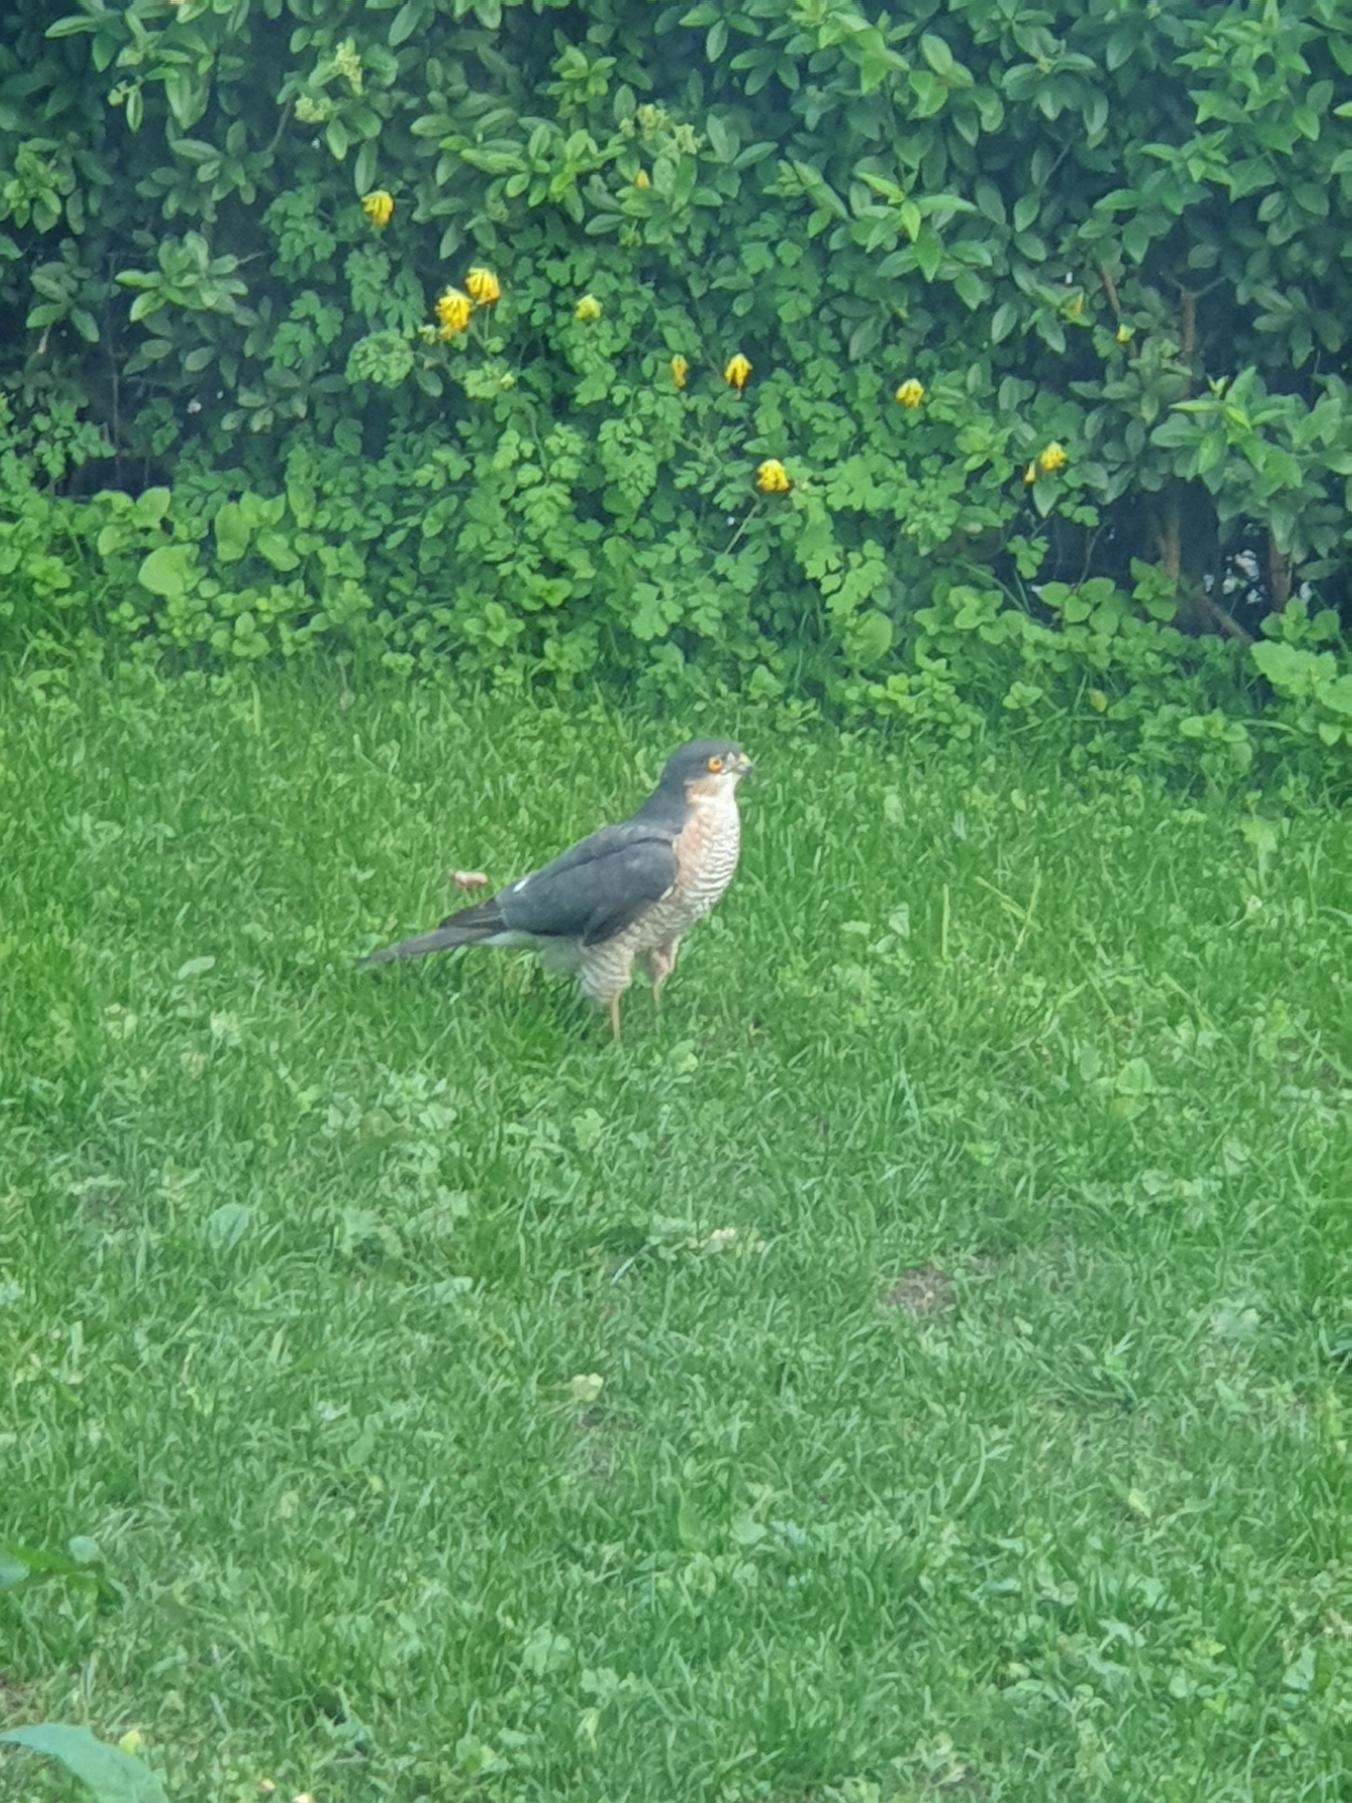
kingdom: Animalia
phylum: Chordata
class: Aves
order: Accipitriformes
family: Accipitridae
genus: Accipiter
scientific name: Accipiter nisus
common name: Spurvehøg
